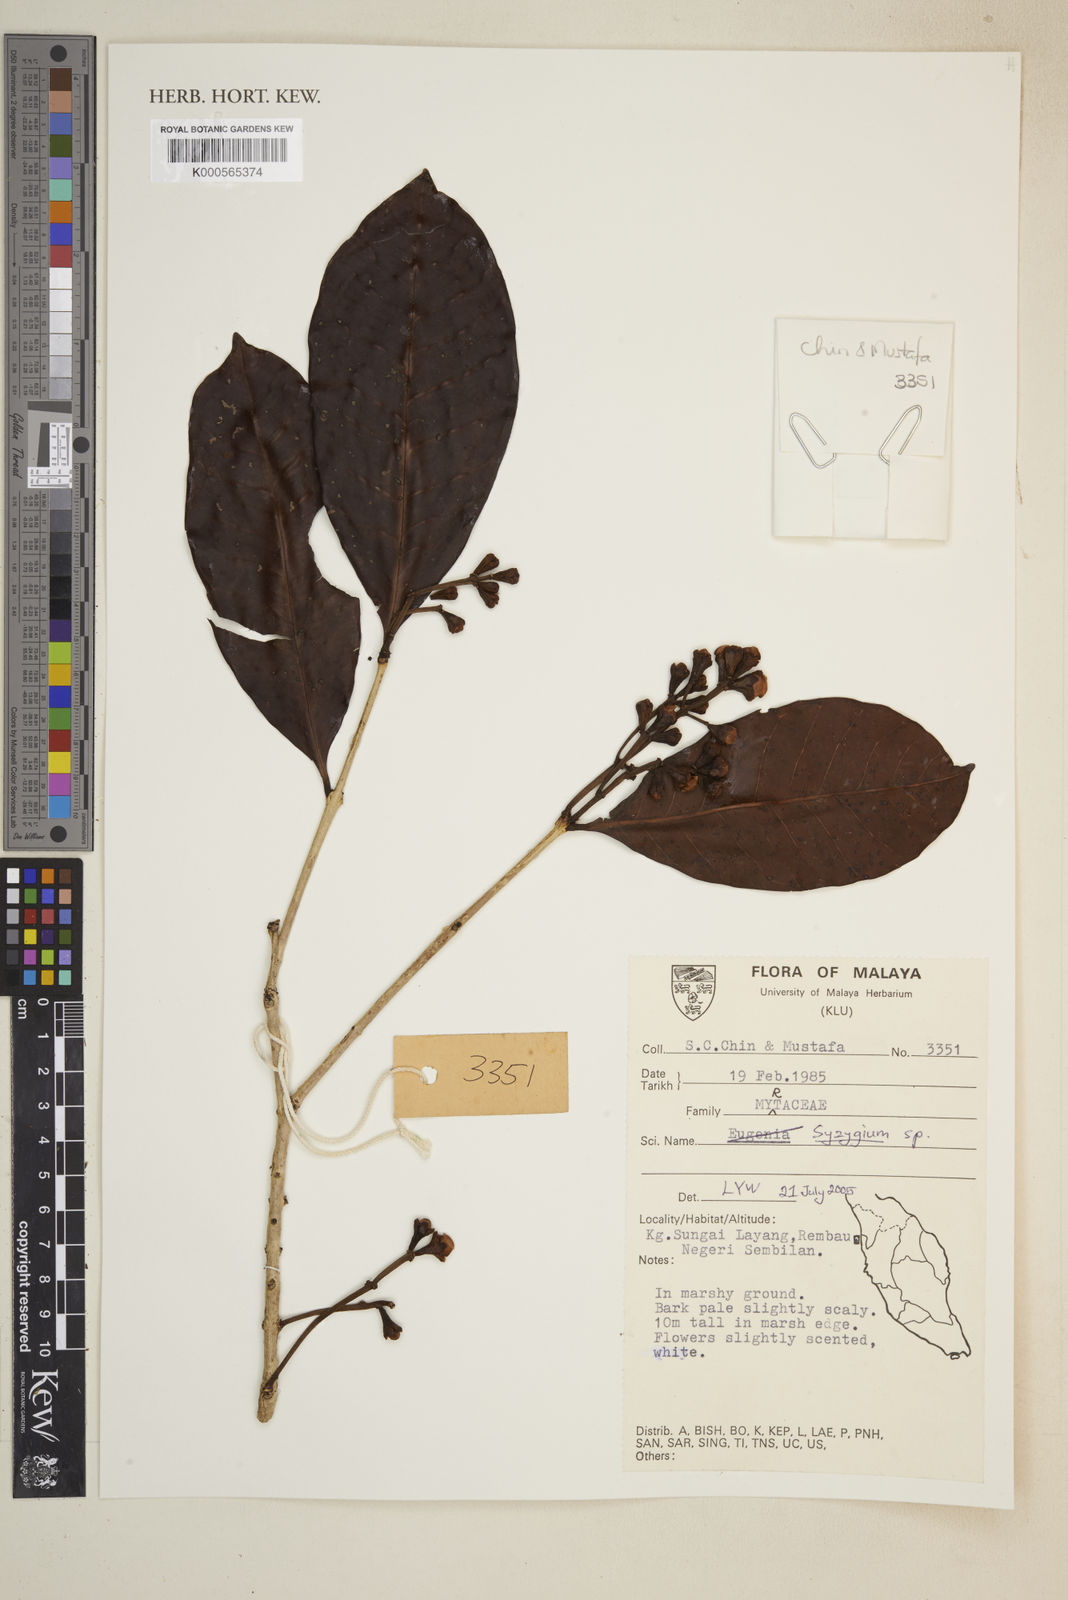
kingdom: Plantae
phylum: Tracheophyta
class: Magnoliopsida
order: Myrtales
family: Myrtaceae
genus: Syzygium
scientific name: Syzygium
